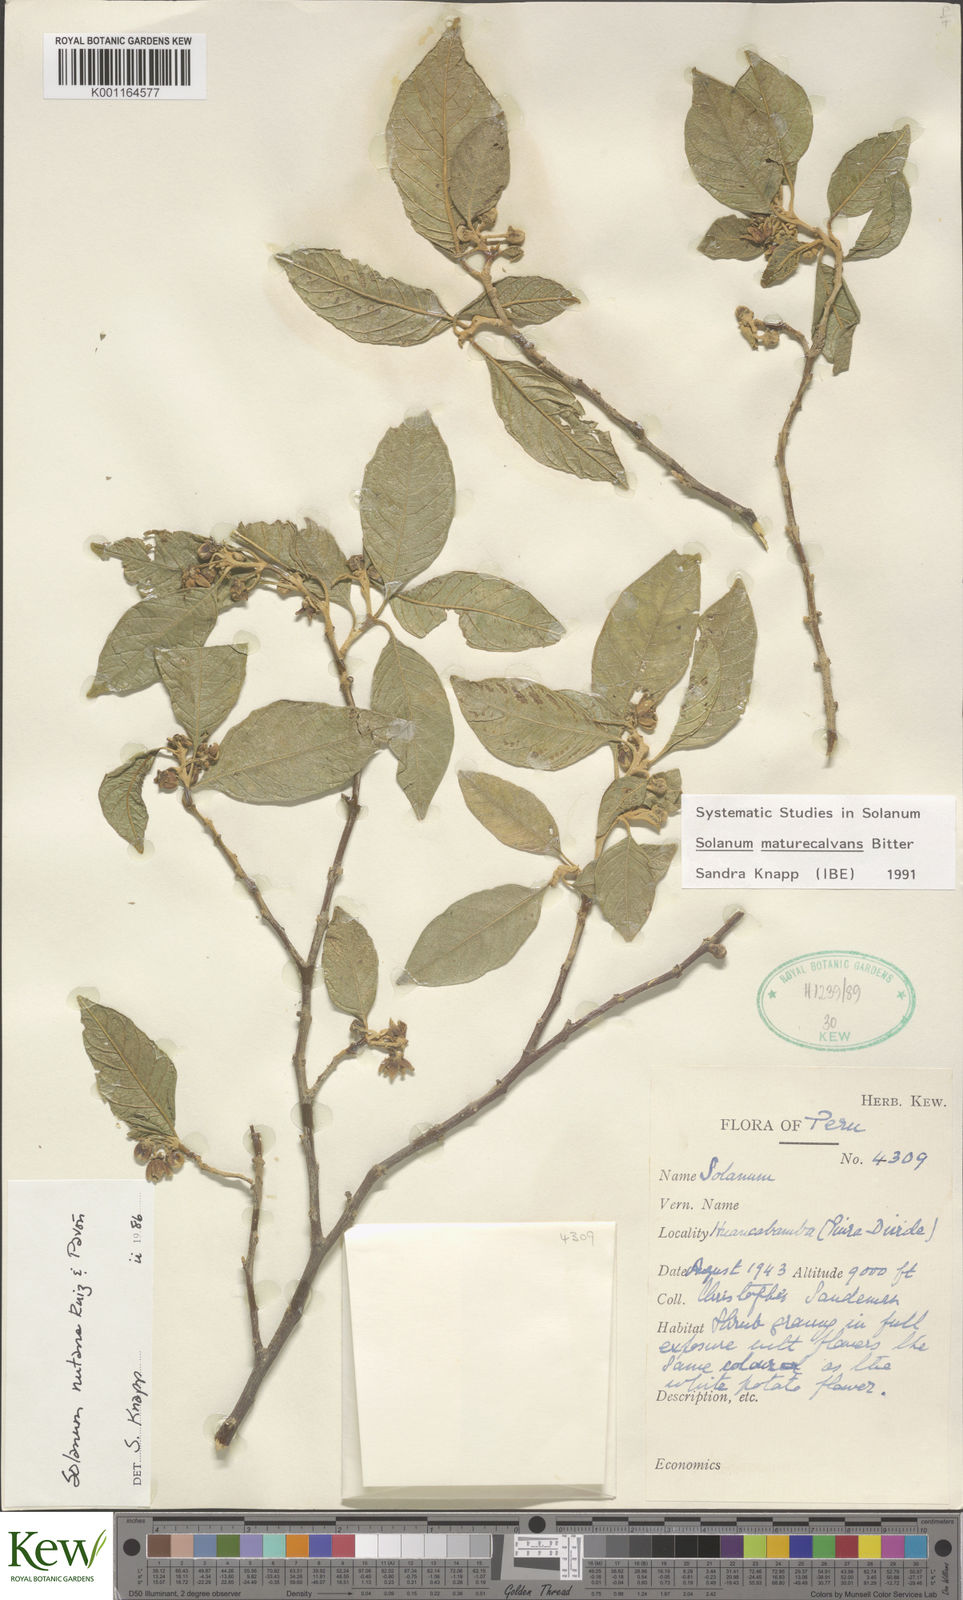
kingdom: Plantae
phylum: Tracheophyta
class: Magnoliopsida
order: Solanales
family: Solanaceae
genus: Solanum
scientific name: Solanum maturecalvans
